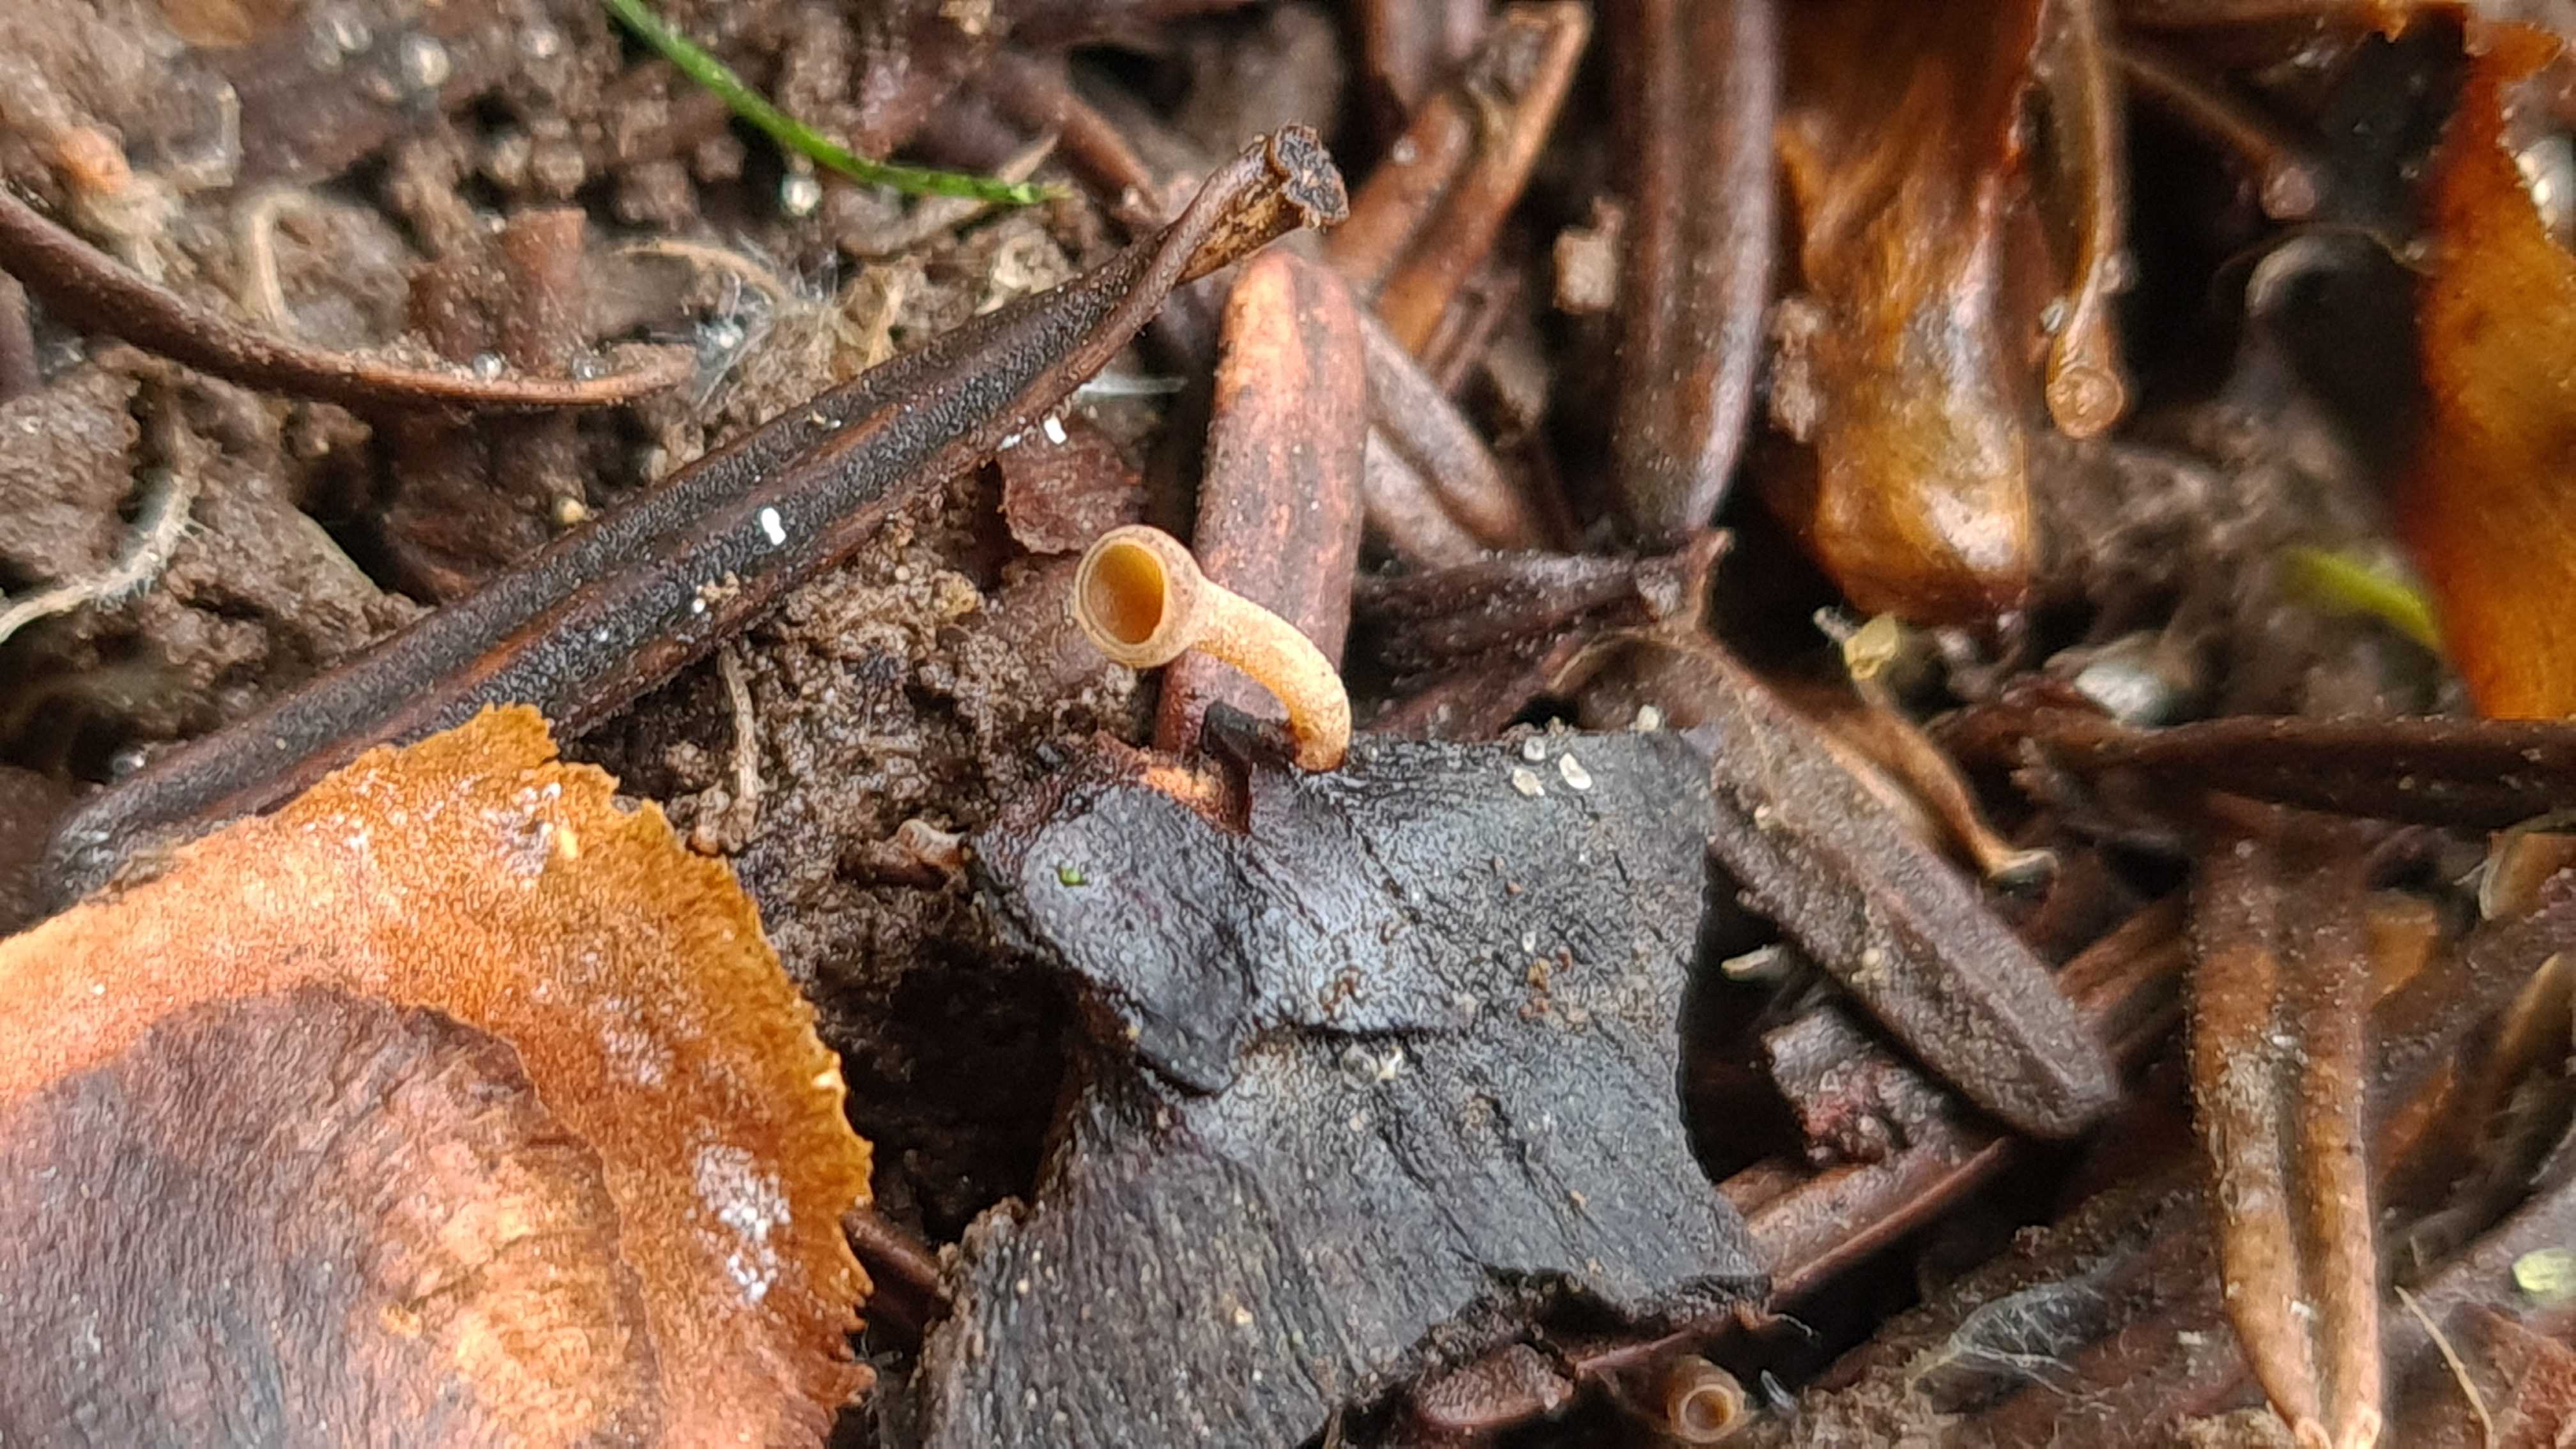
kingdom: Fungi
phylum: Ascomycota
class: Leotiomycetes
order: Helotiales
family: Sclerotiniaceae
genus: Ciboria
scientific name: Ciboria rufofusca
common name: kogleskæl-knoldskive
